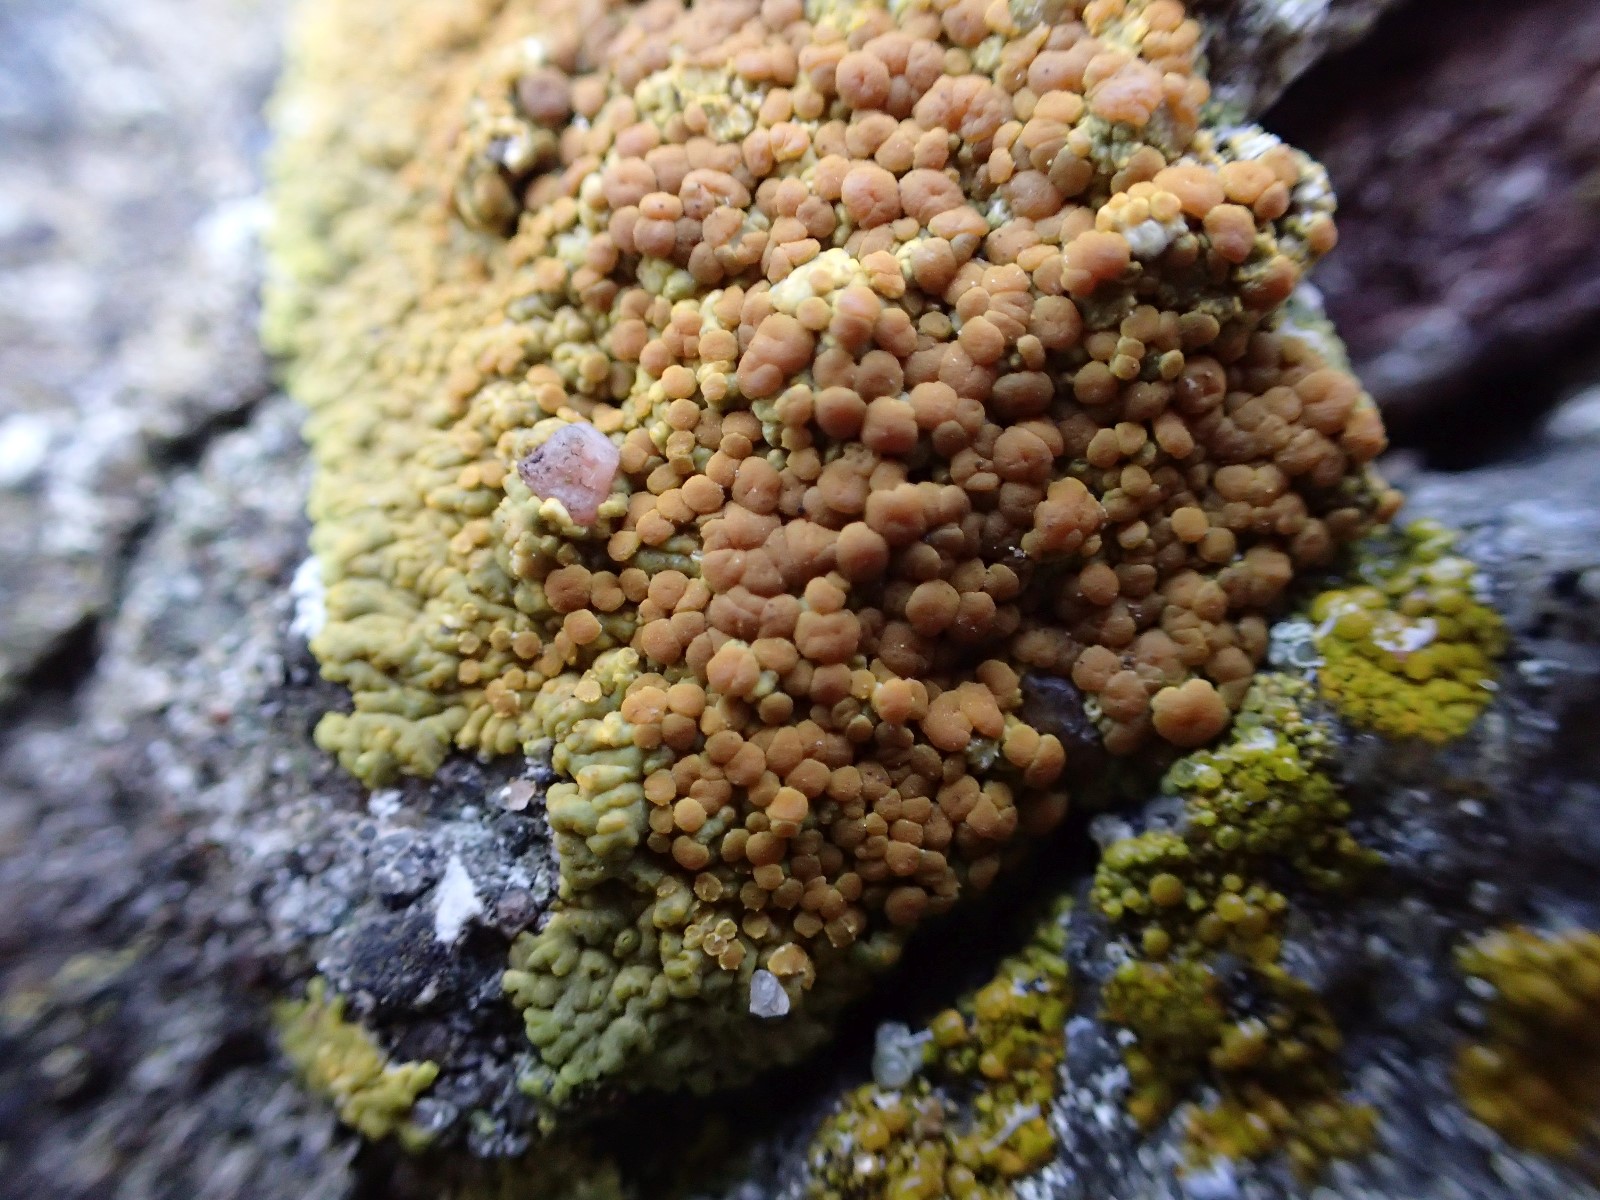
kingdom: Fungi
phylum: Ascomycota
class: Lecanoromycetes
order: Teloschistales
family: Teloschistaceae
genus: Variospora
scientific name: Variospora flavescens
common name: kalk-orangelav
